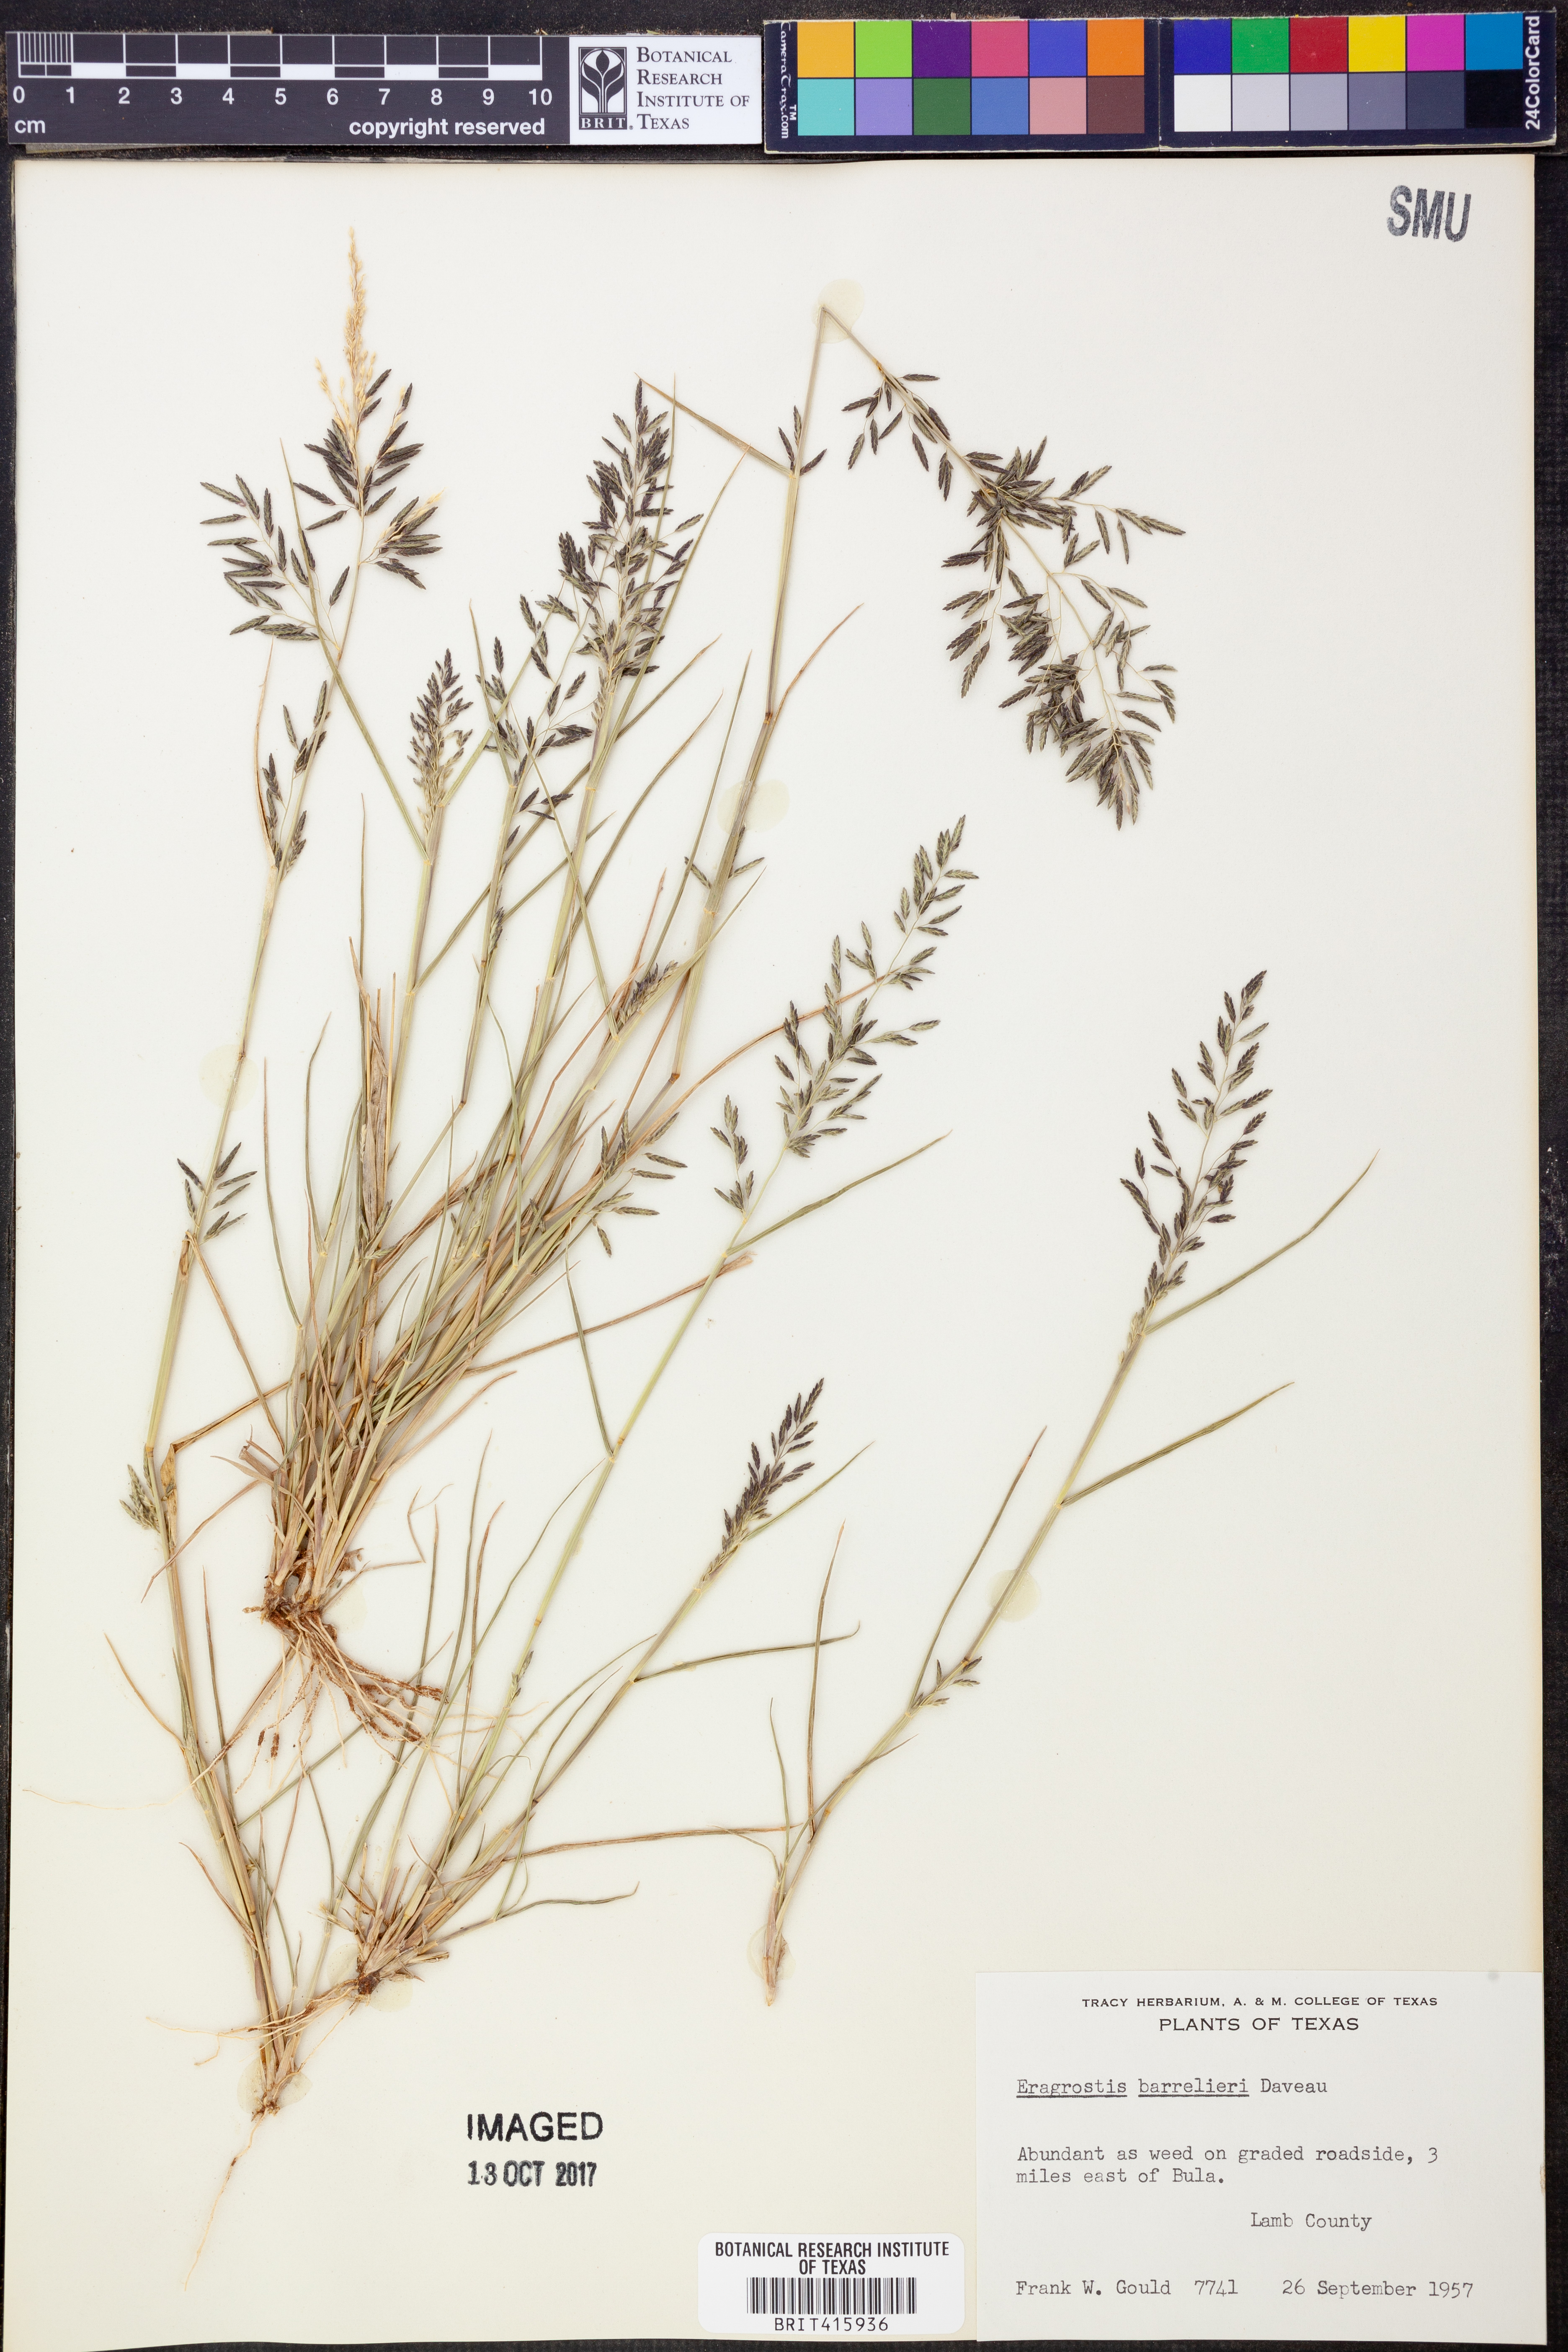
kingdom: Plantae
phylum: Tracheophyta
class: Liliopsida
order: Poales
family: Poaceae
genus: Eragrostis
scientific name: Eragrostis barrelieri
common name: Mediterranean lovegrass
